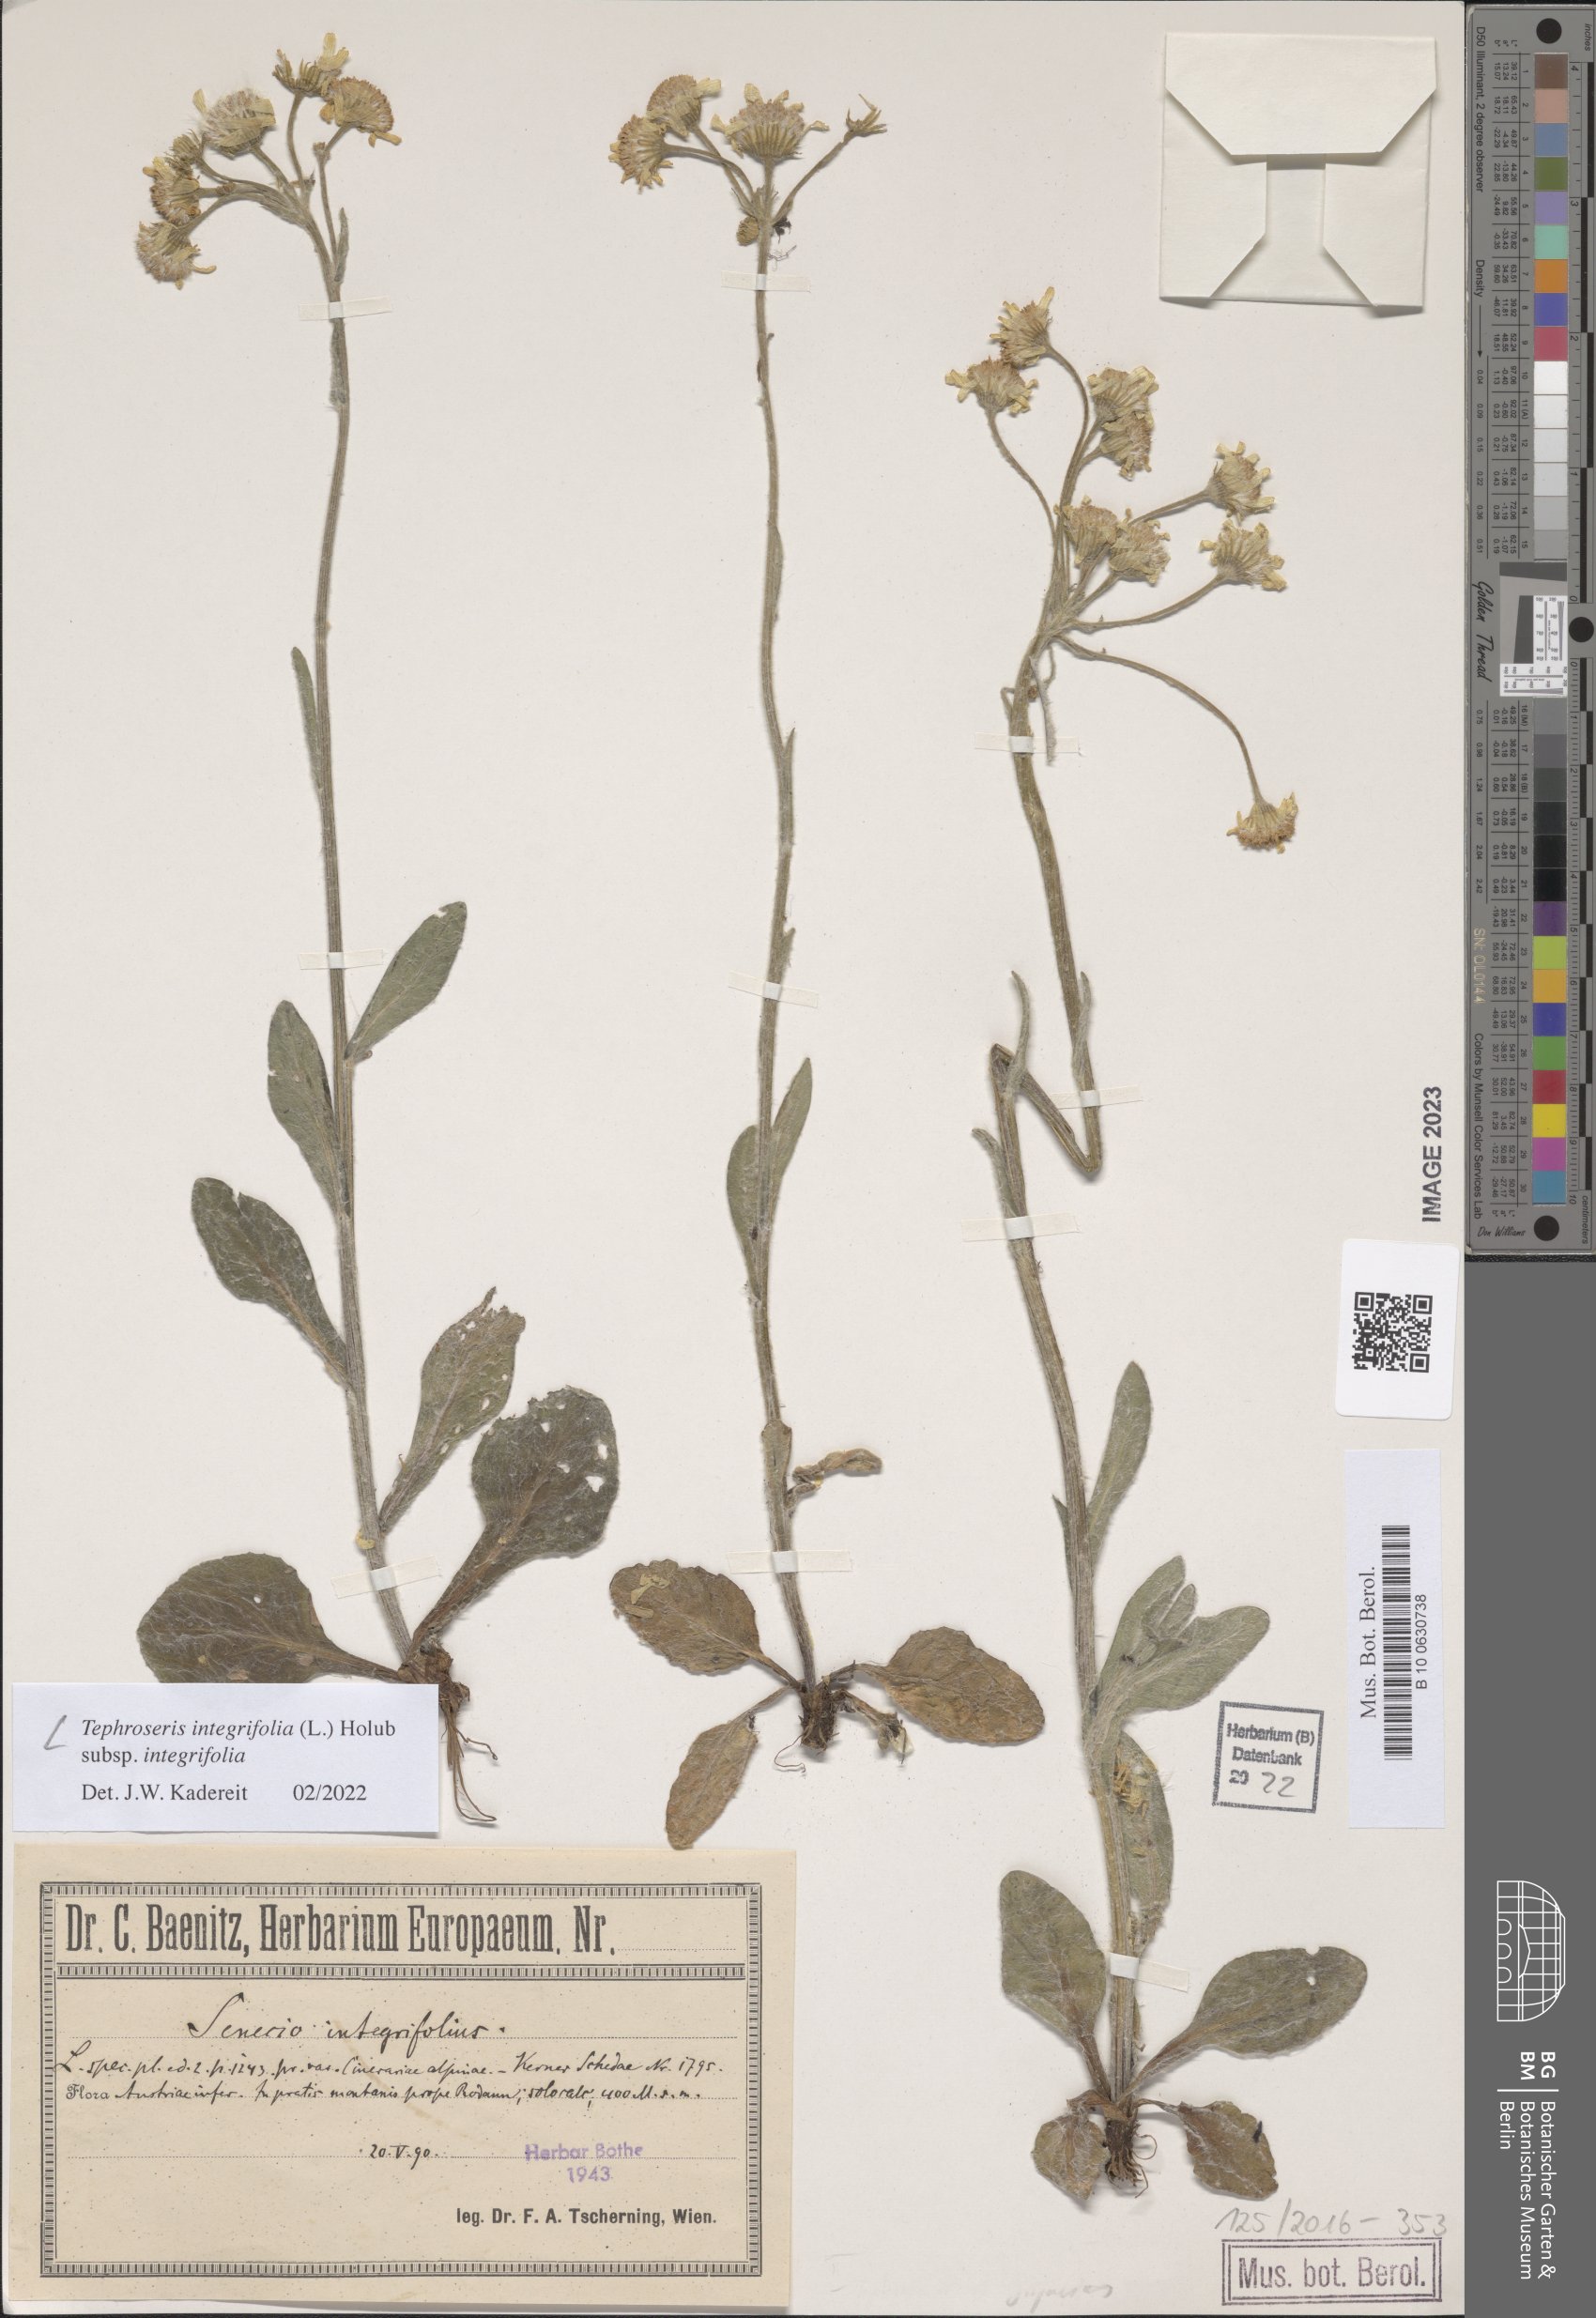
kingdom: Plantae
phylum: Tracheophyta
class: Magnoliopsida
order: Asterales
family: Asteraceae
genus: Tephroseris
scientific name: Tephroseris integrifolia
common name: Field fleawort
